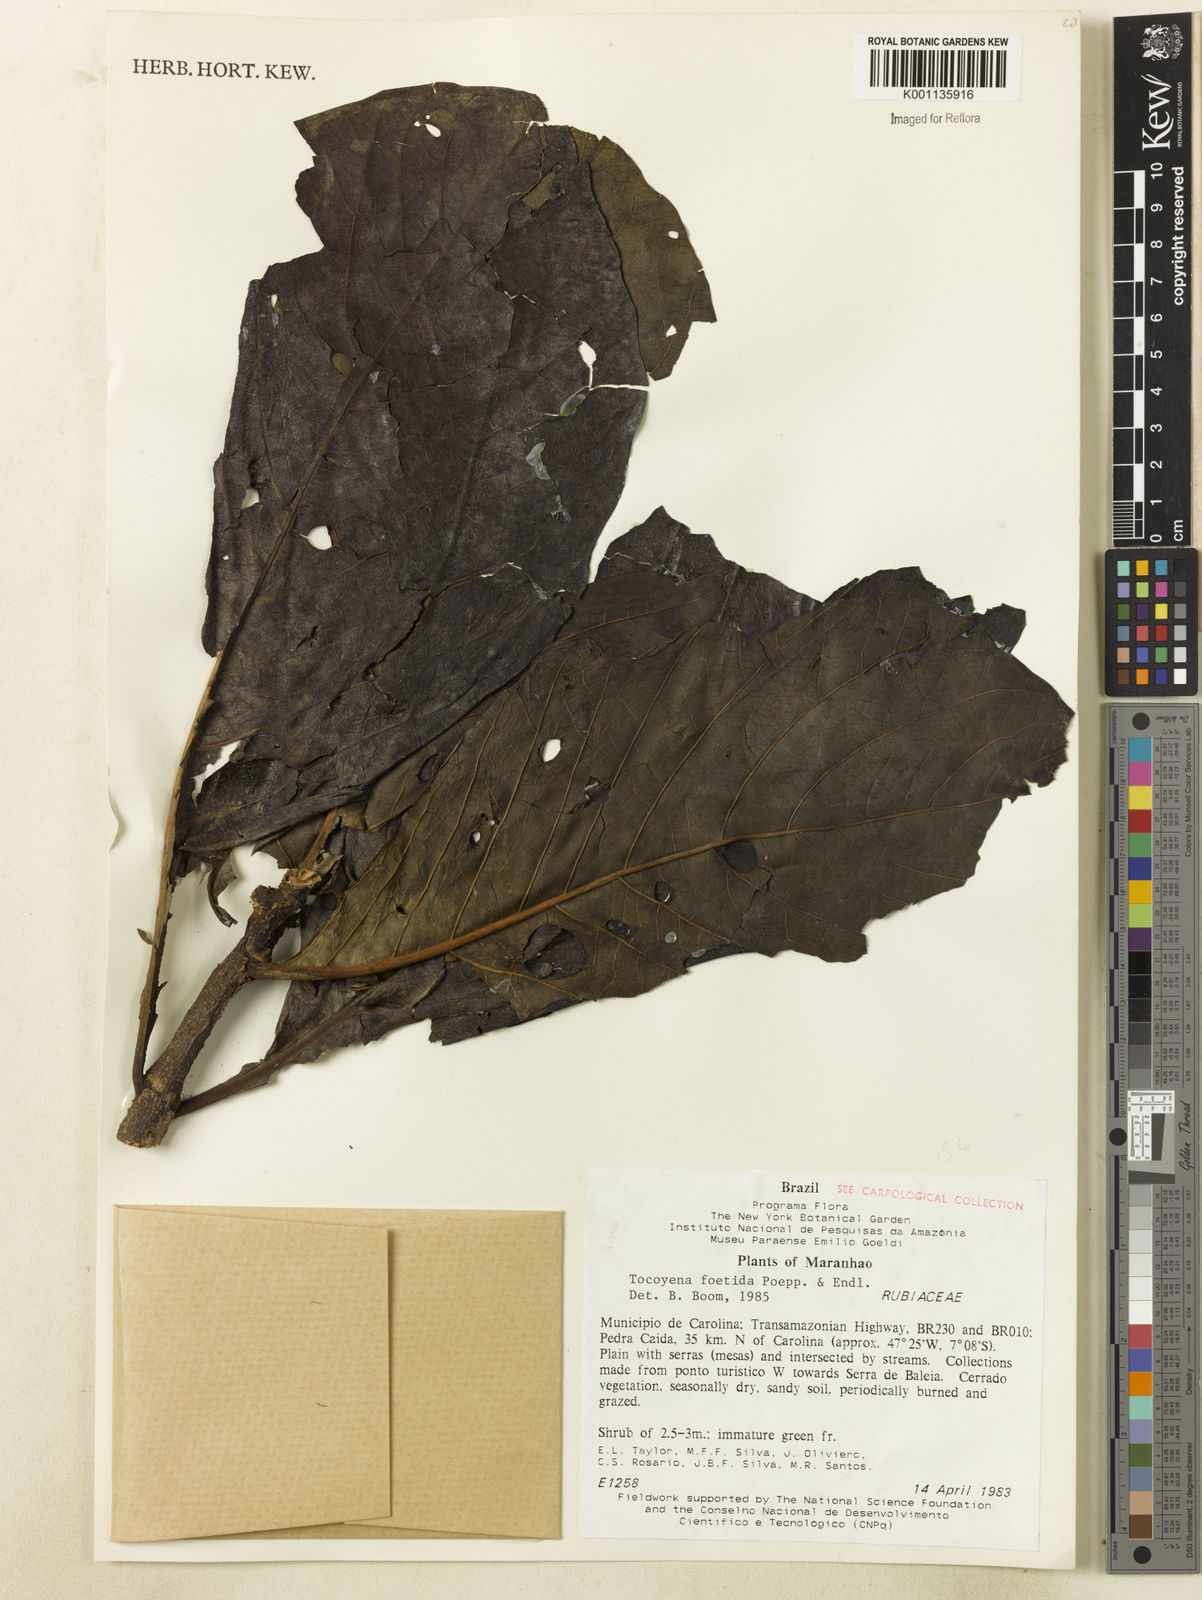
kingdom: Plantae
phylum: Tracheophyta
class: Magnoliopsida
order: Gentianales
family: Rubiaceae
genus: Tocoyena
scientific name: Tocoyena foetida
